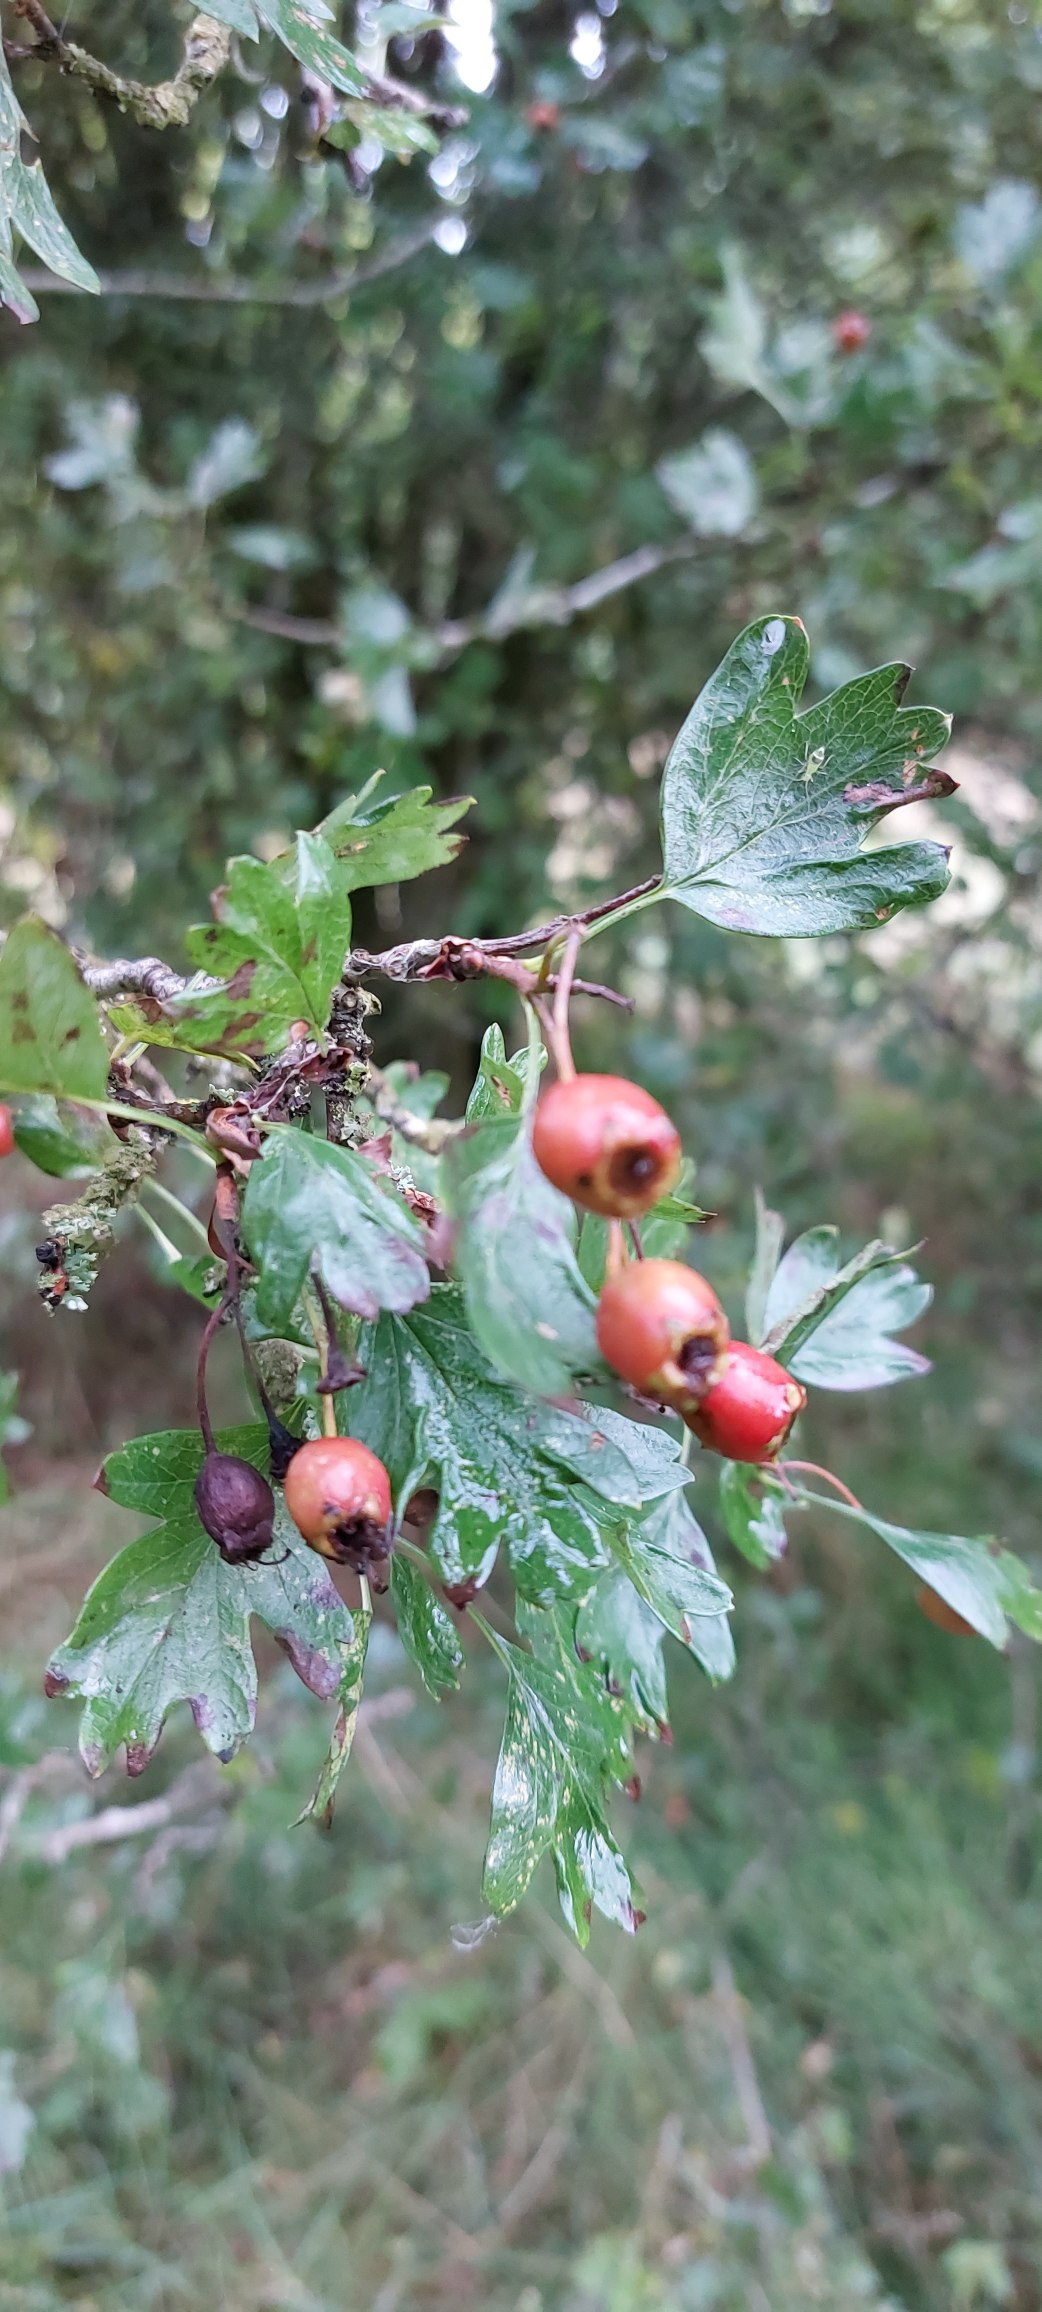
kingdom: Plantae
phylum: Tracheophyta
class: Magnoliopsida
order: Rosales
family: Rosaceae
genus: Crataegus
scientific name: Crataegus media
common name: Almindelig hvidtjørn × engriflet hvidtjørn
